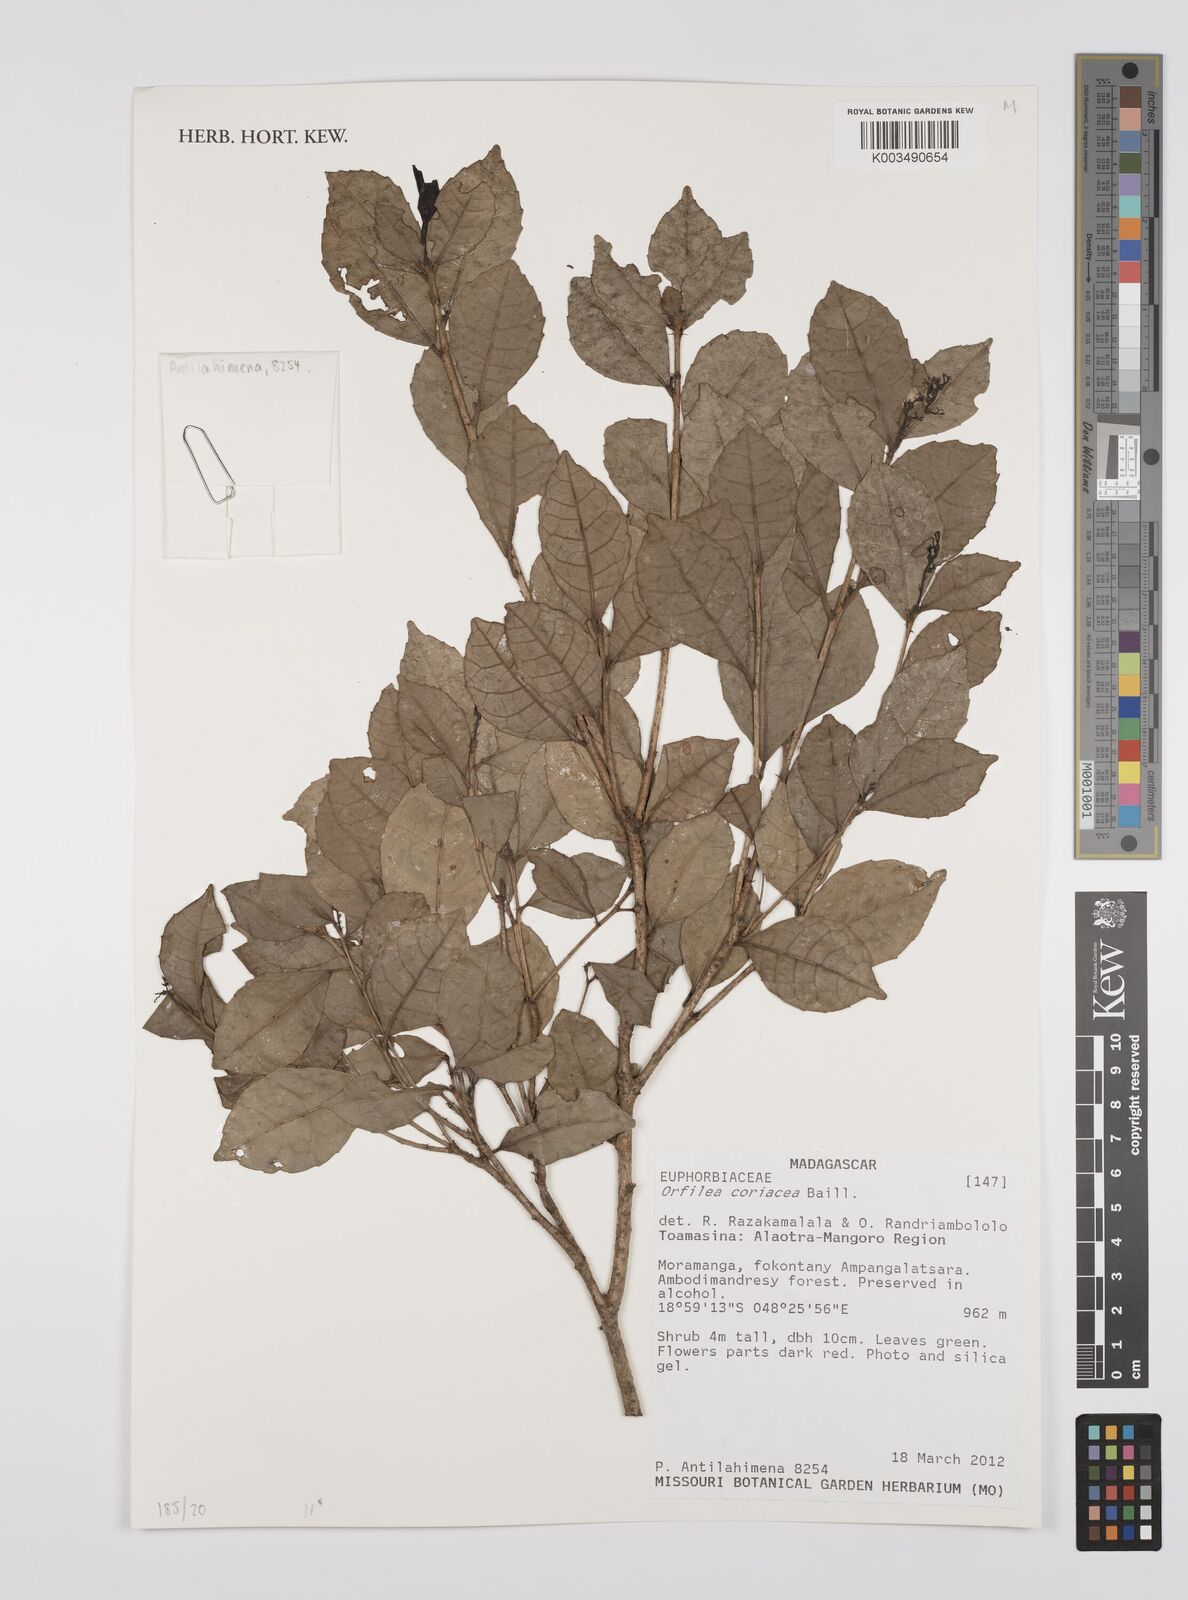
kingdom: Plantae
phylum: Tracheophyta
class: Magnoliopsida
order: Malpighiales
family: Euphorbiaceae
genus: Orfilea
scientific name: Orfilea coriacea
